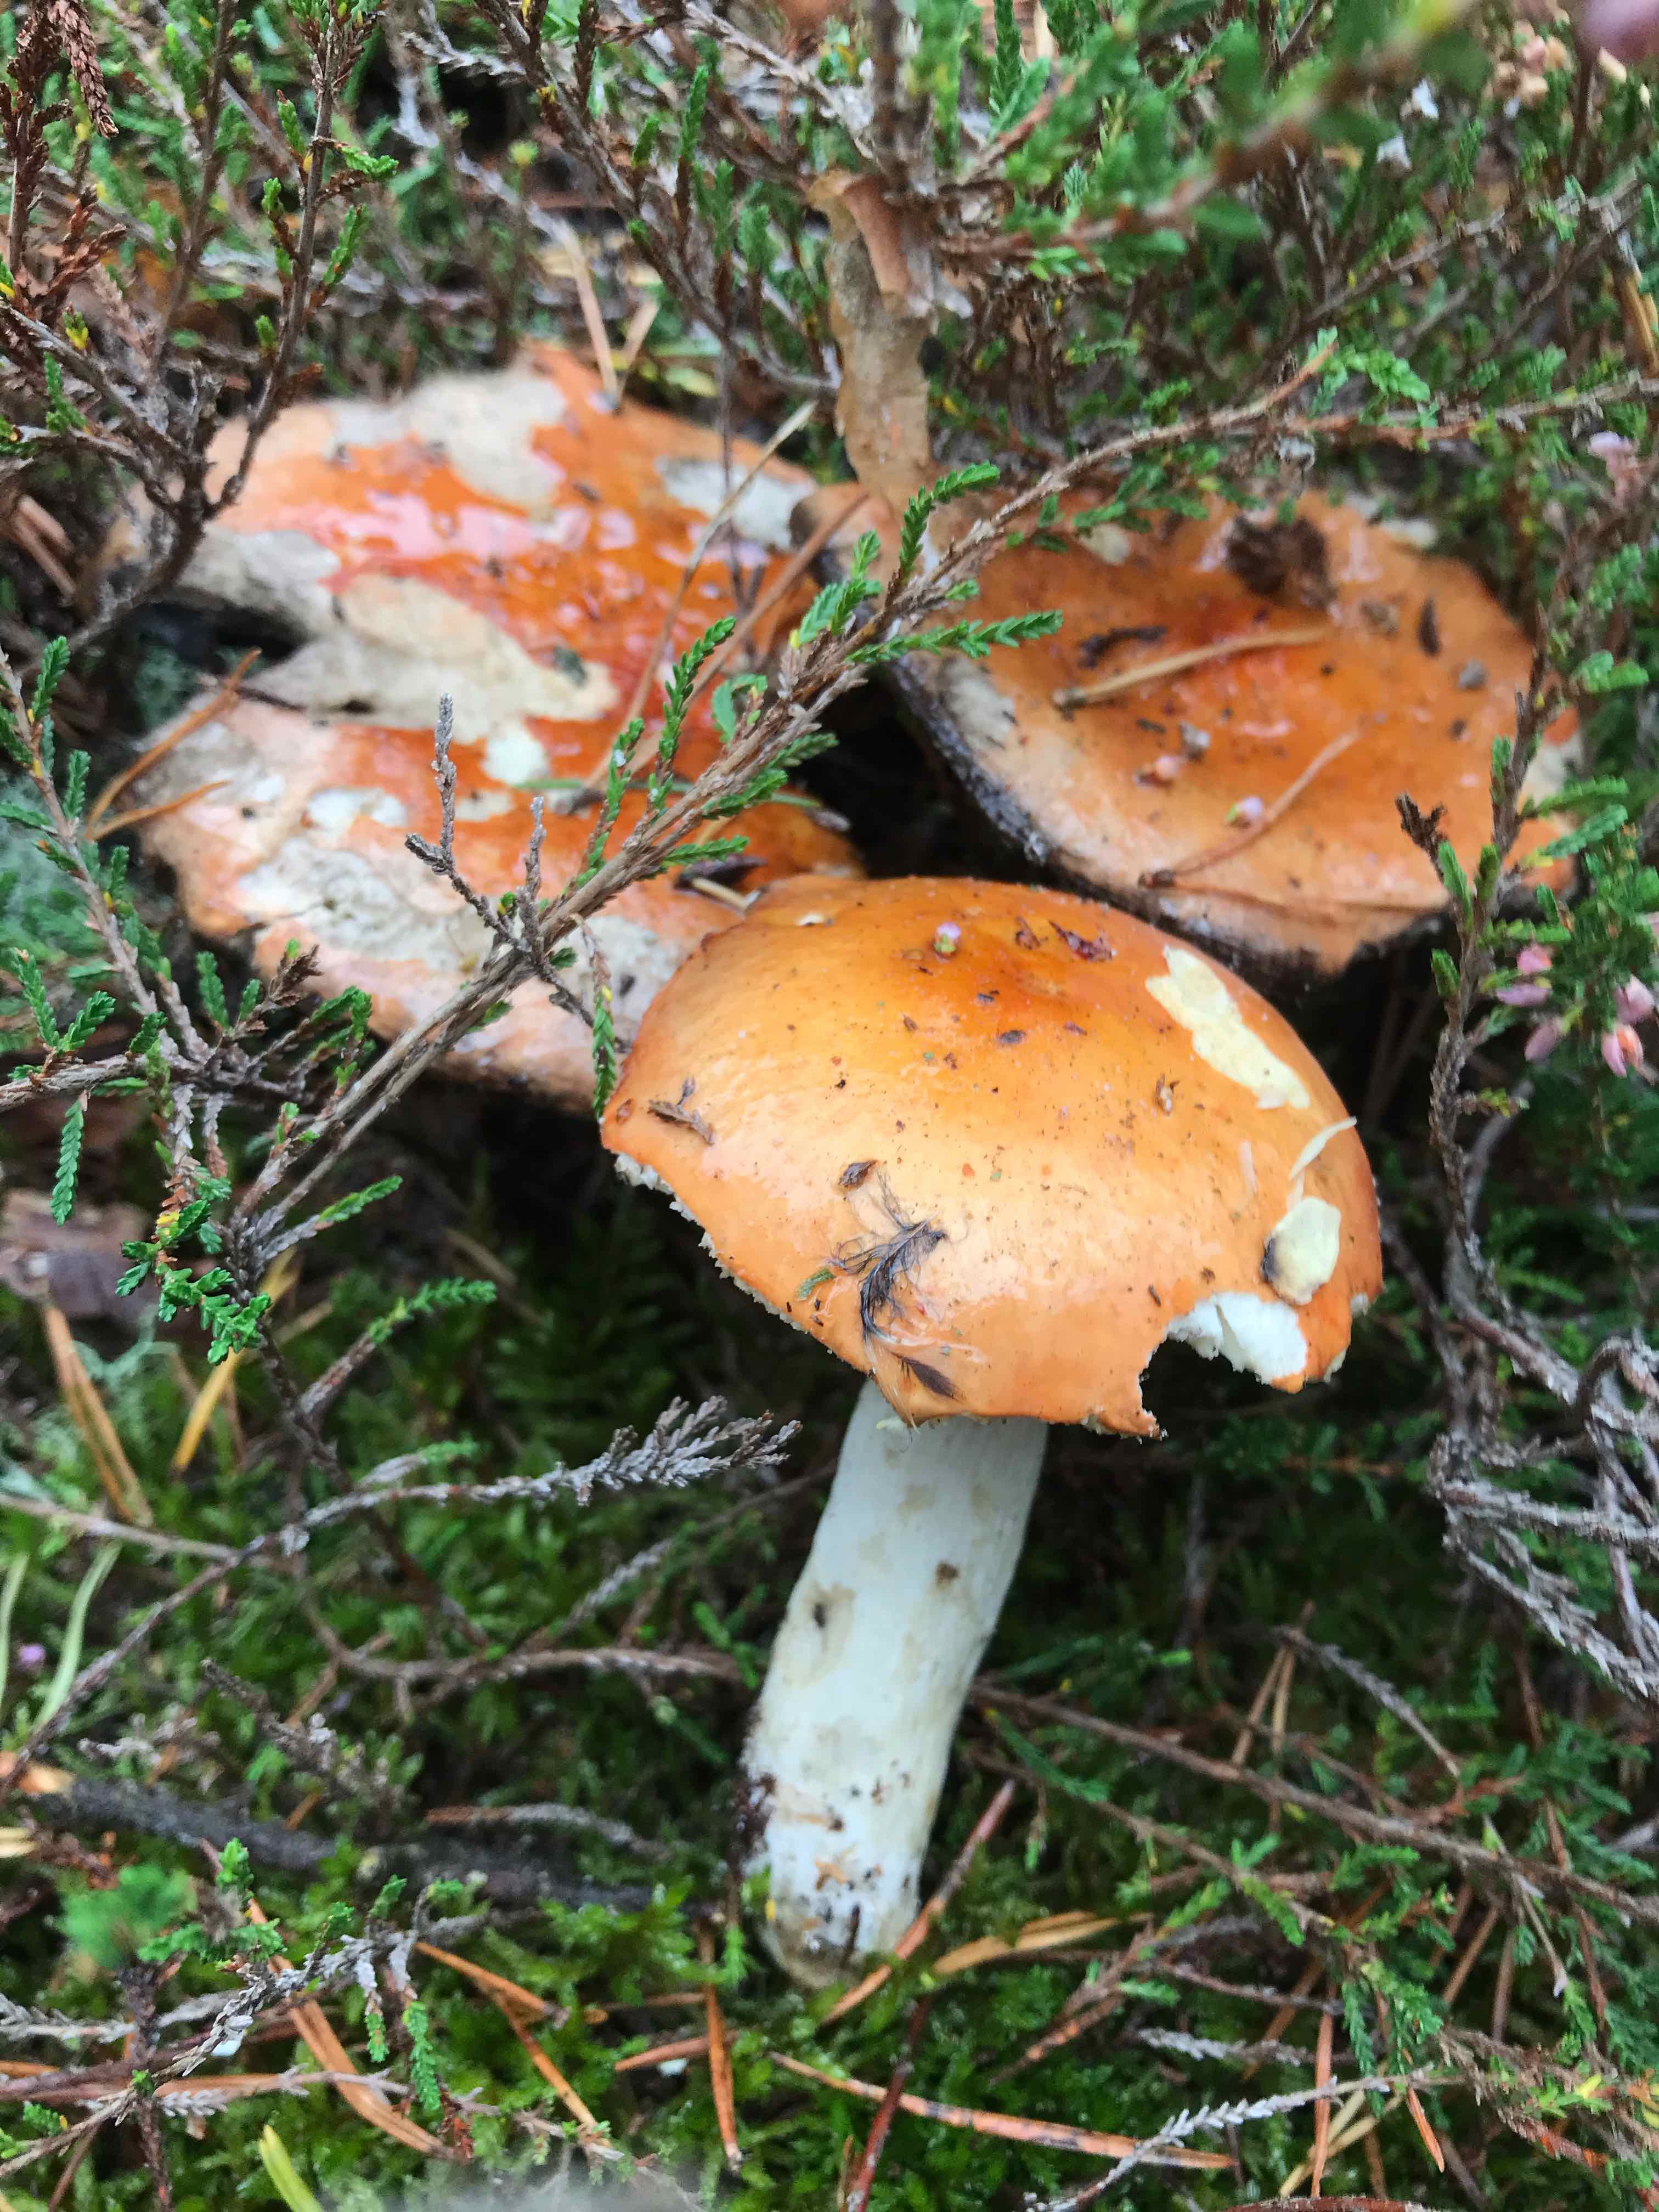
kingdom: Fungi
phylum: Basidiomycota
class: Agaricomycetes
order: Russulales
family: Russulaceae
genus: Russula
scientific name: Russula decolorans
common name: afblegende skørhat
